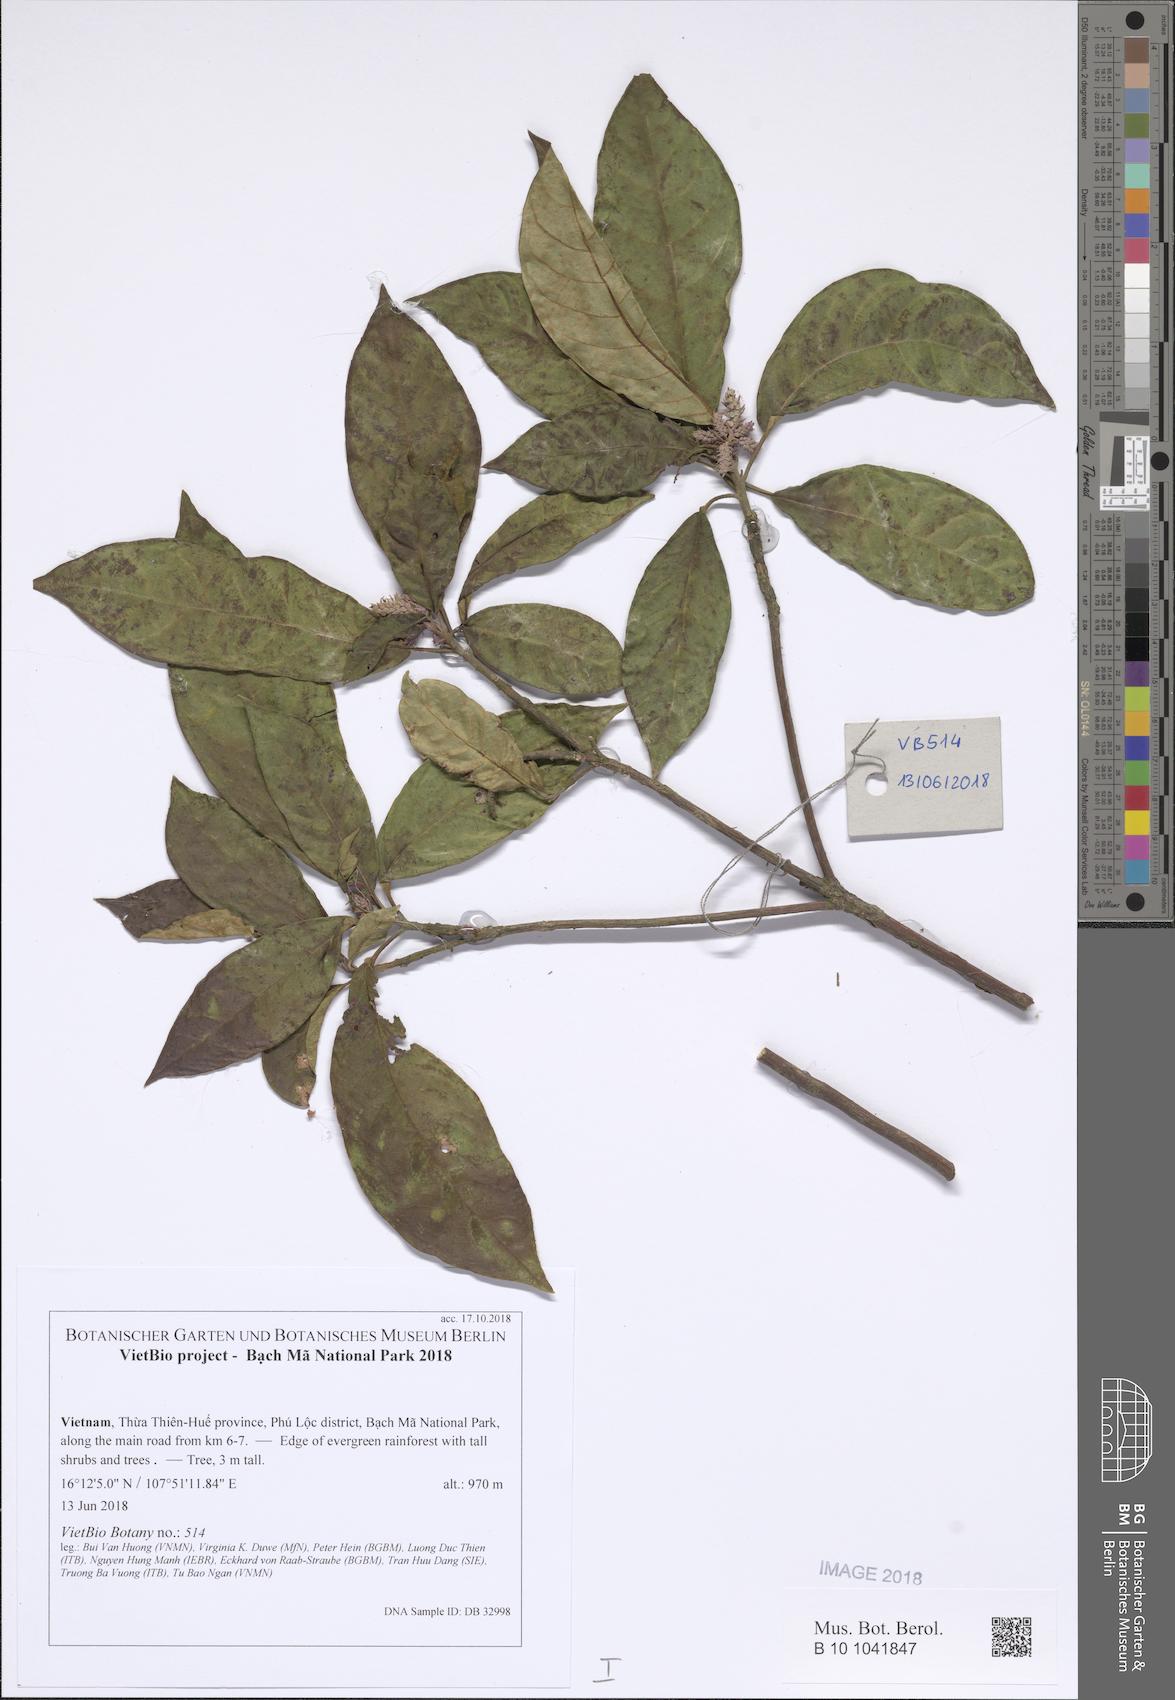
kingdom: Plantae
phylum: Tracheophyta
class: Magnoliopsida
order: Malpighiales
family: Euphorbiaceae
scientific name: Euphorbiaceae
